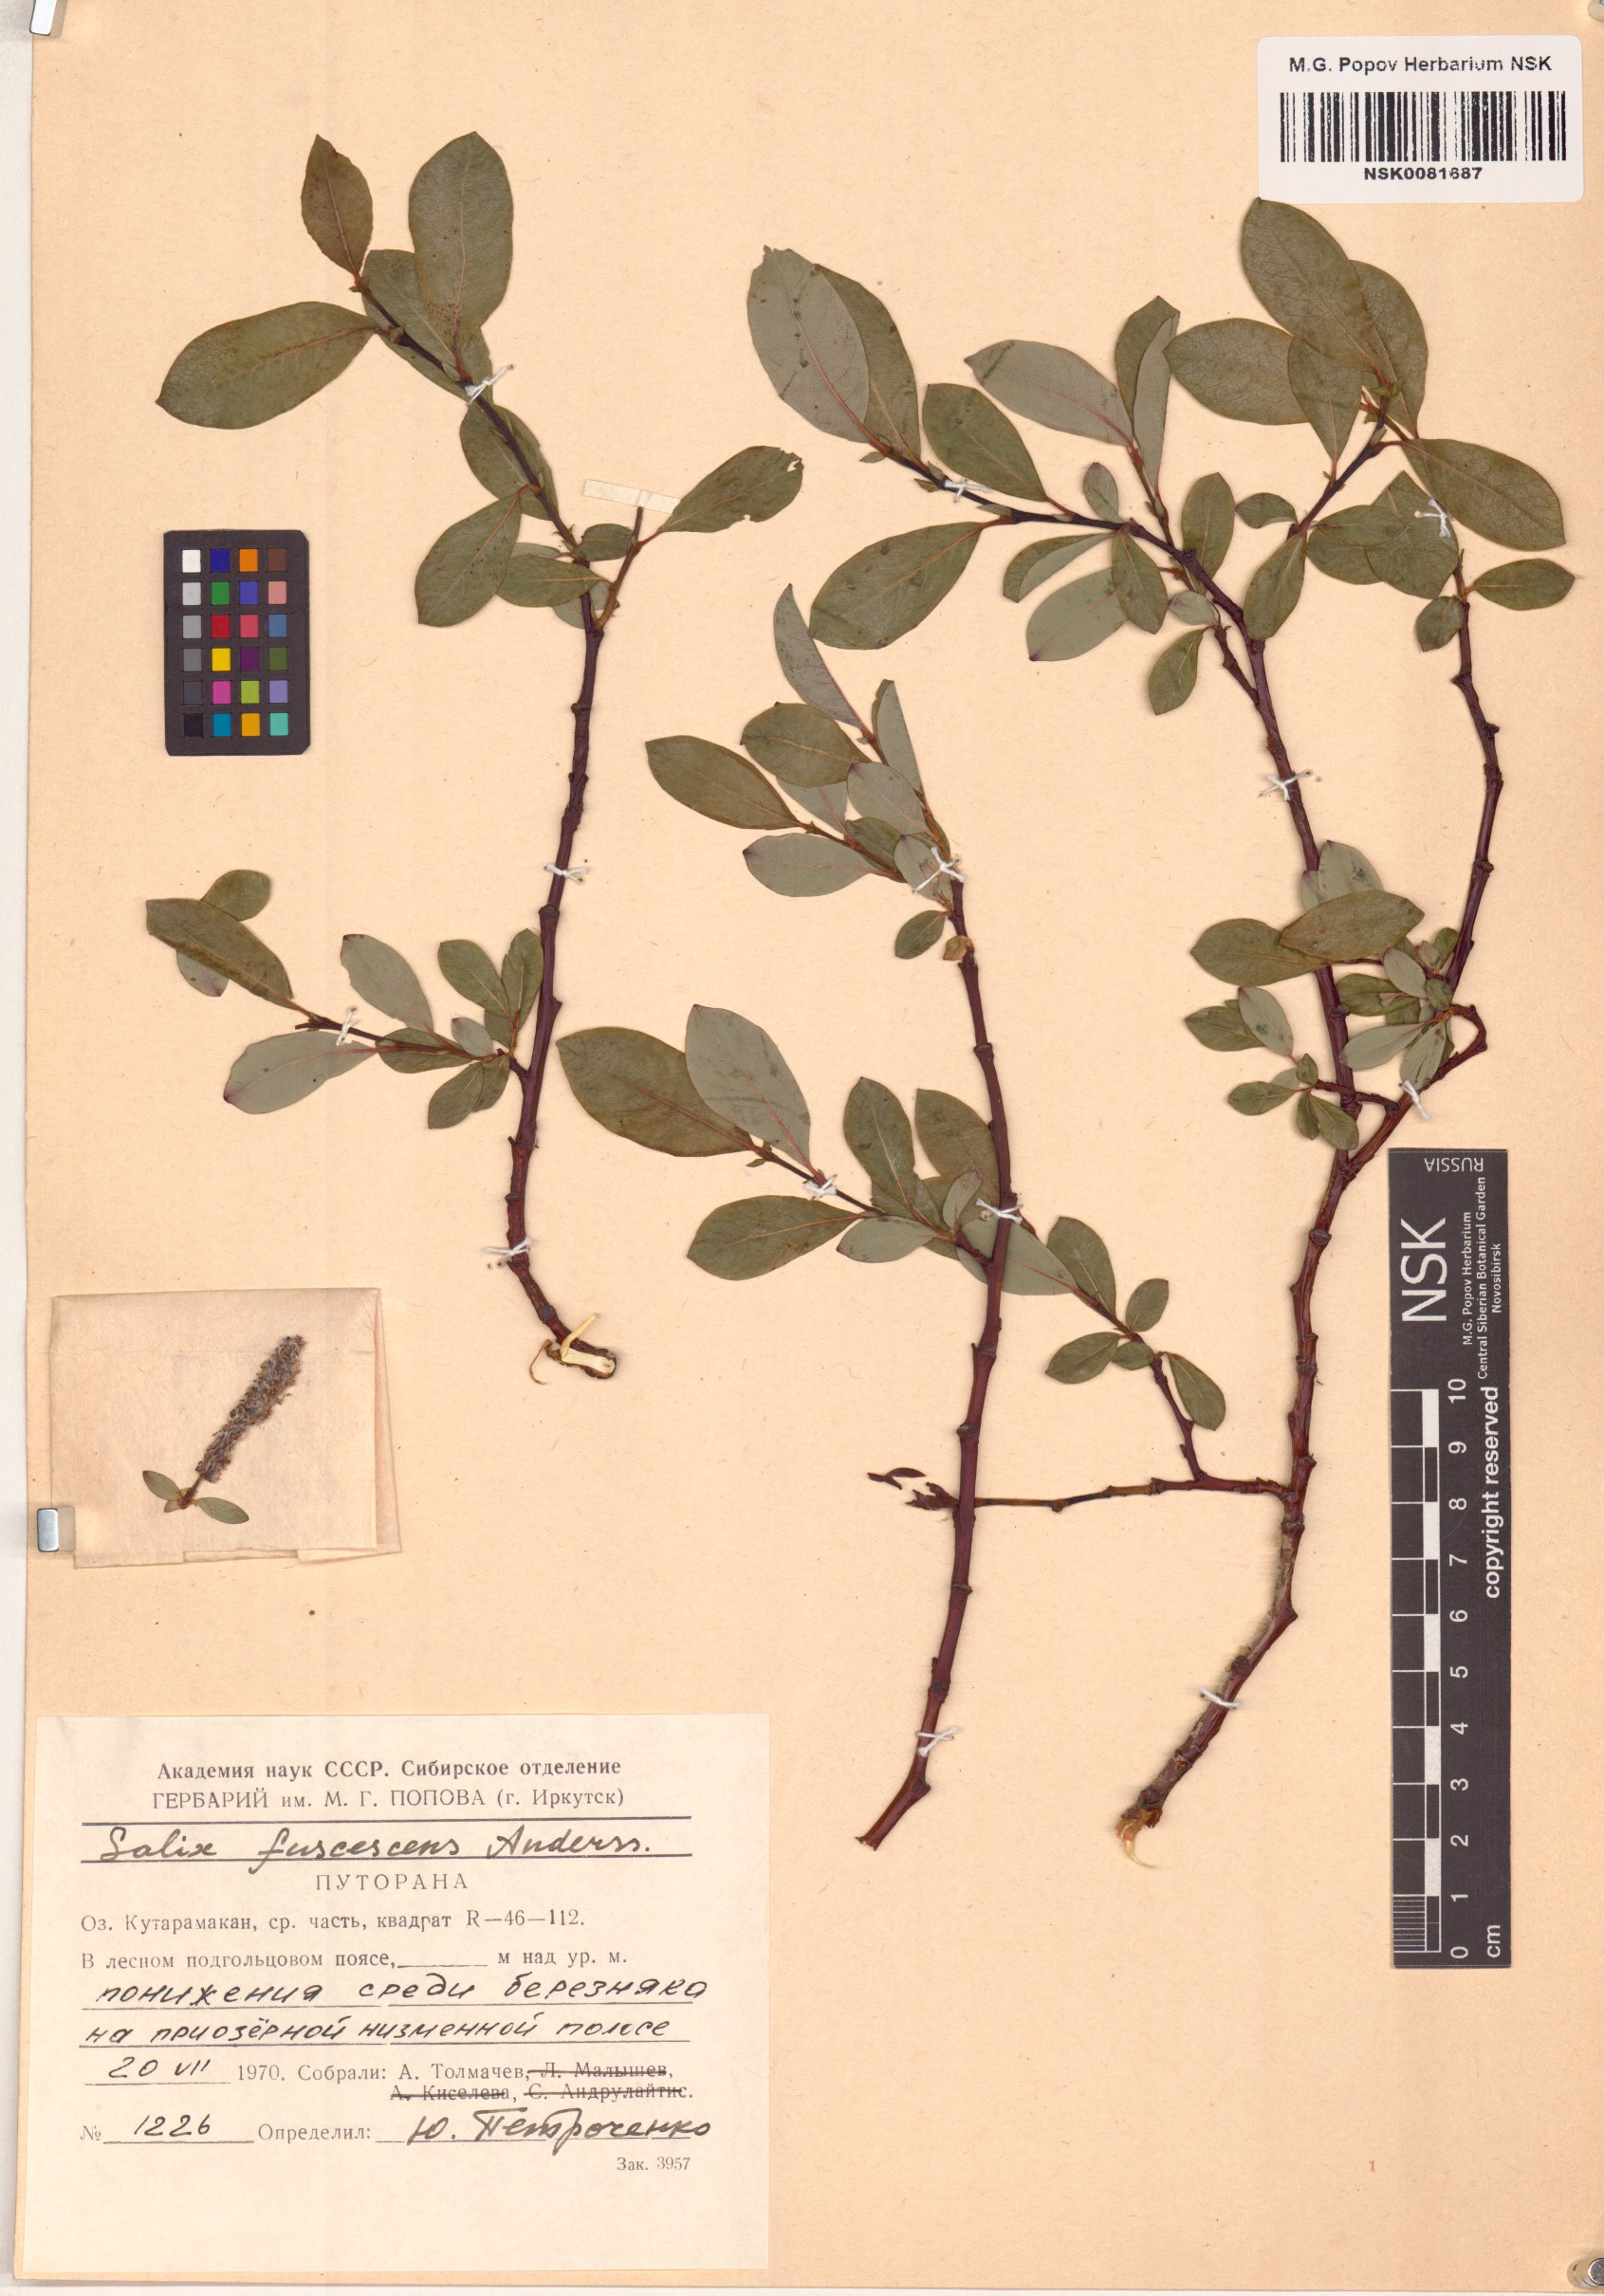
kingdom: Plantae
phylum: Tracheophyta
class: Magnoliopsida
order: Malpighiales
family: Salicaceae
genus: Salix
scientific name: Salix fuscescens
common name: Brownish willow
